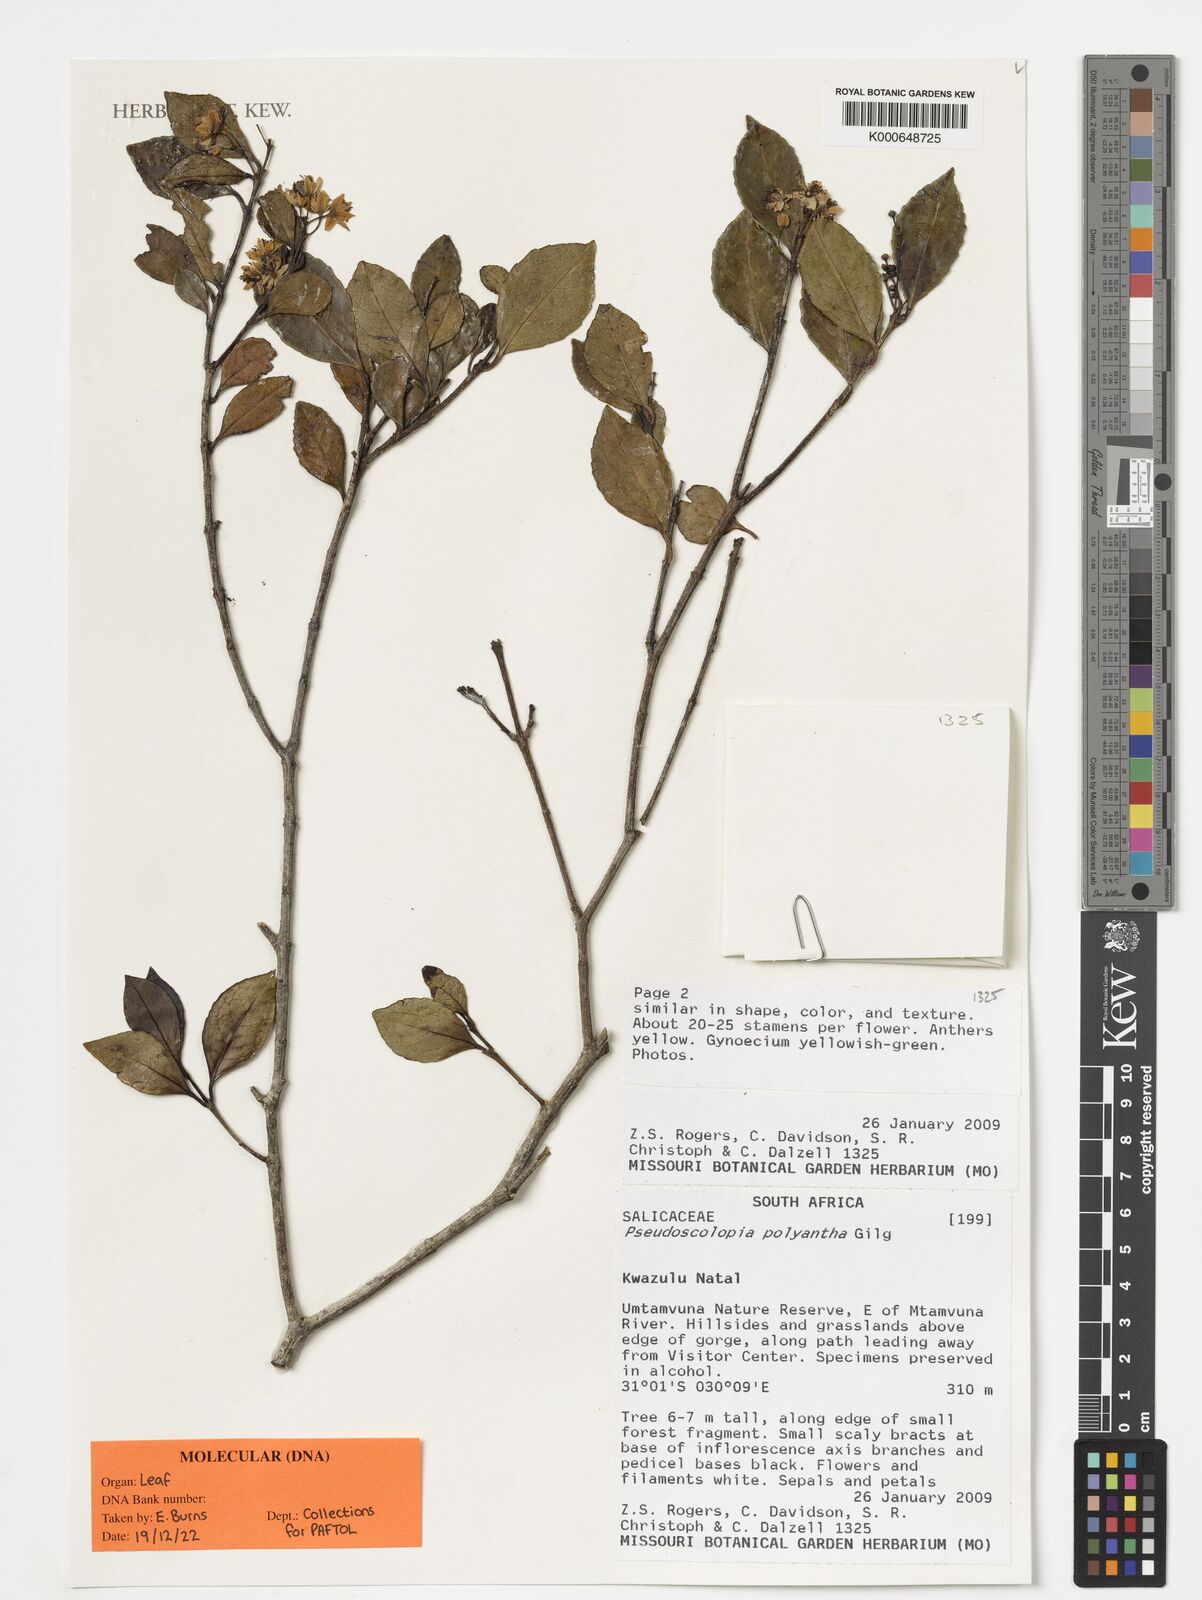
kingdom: Plantae
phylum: Tracheophyta
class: Magnoliopsida
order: Malpighiales
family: Salicaceae
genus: Pseudoscolopia
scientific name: Pseudoscolopia polyantha
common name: Sandstone red-stem
